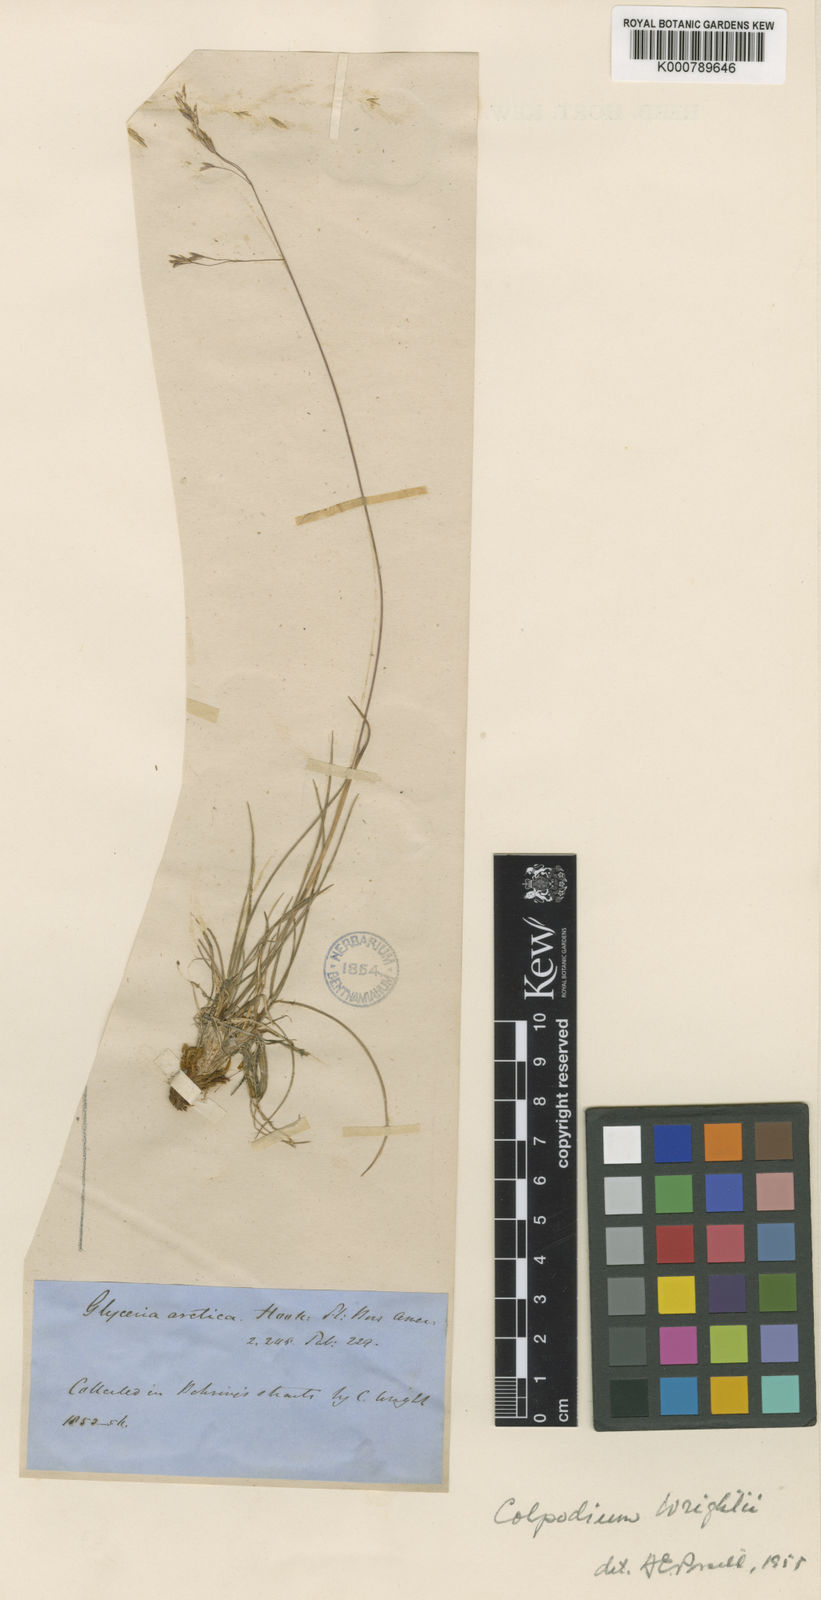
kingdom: Plantae
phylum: Tracheophyta
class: Liliopsida
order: Poales
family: Poaceae
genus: Puccinellia
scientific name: Puccinellia wrightii
